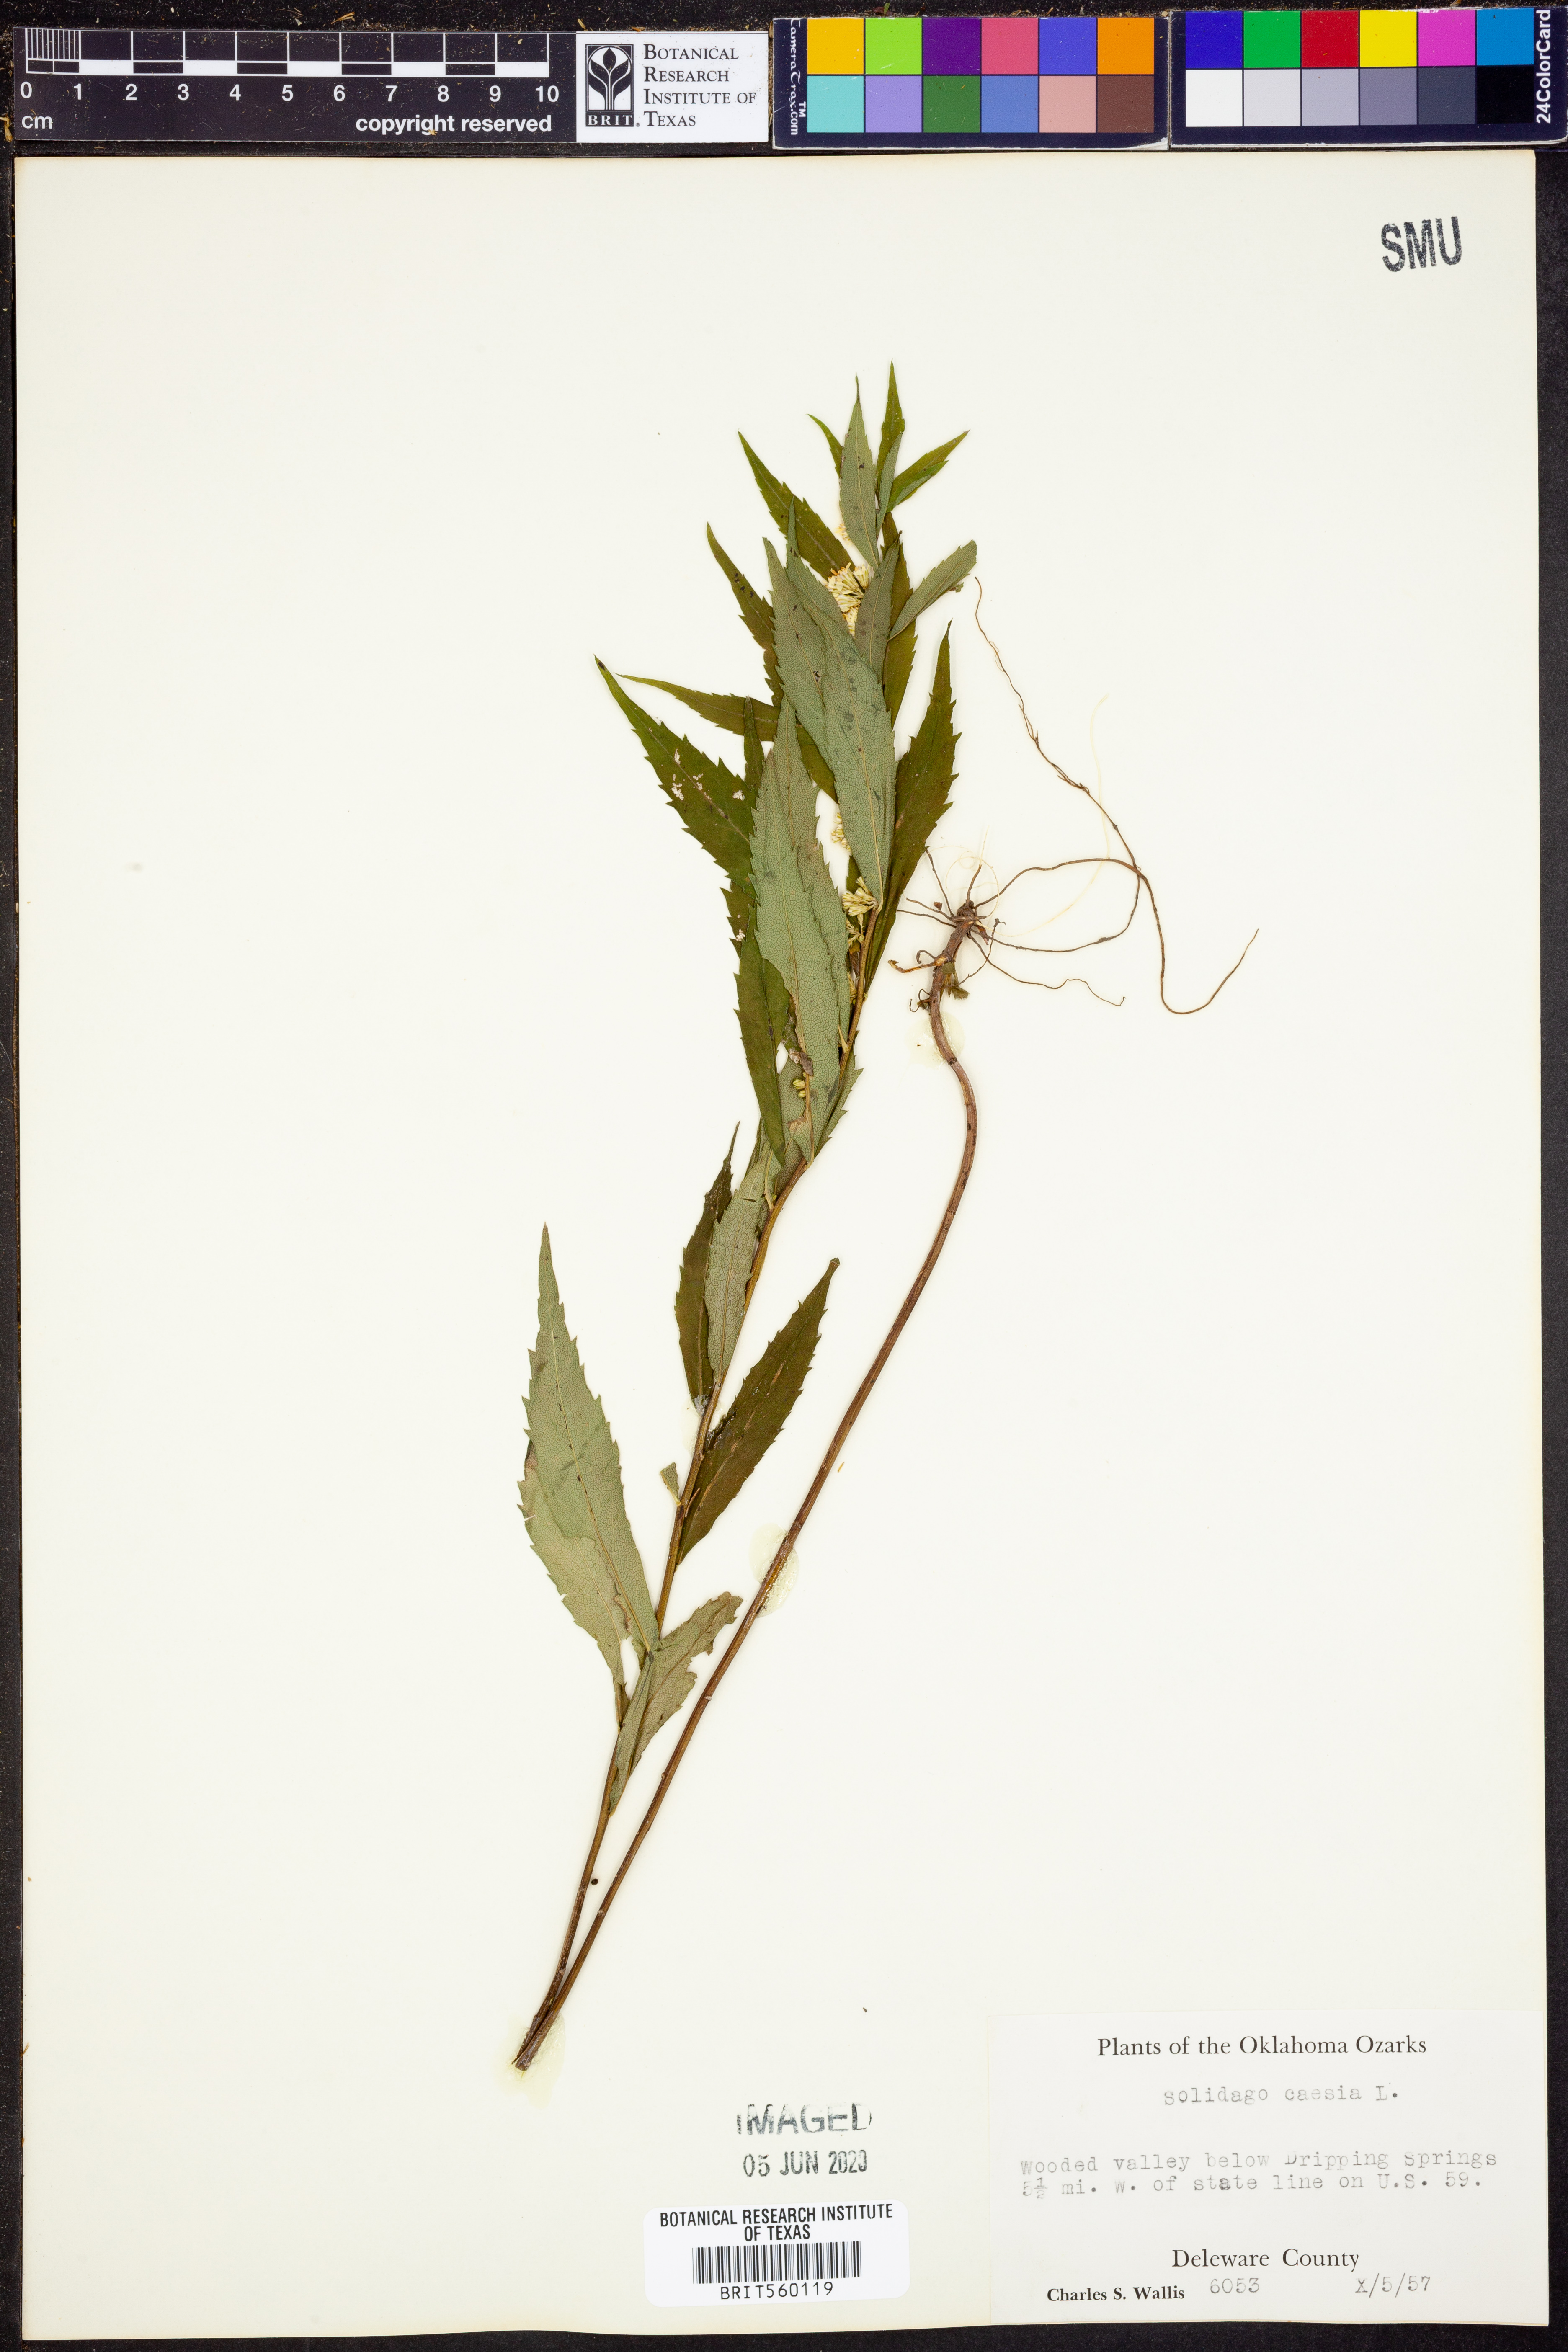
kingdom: Plantae
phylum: Tracheophyta
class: Magnoliopsida
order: Asterales
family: Asteraceae
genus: Solidago
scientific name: Solidago caesia
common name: Woodland goldenrod
